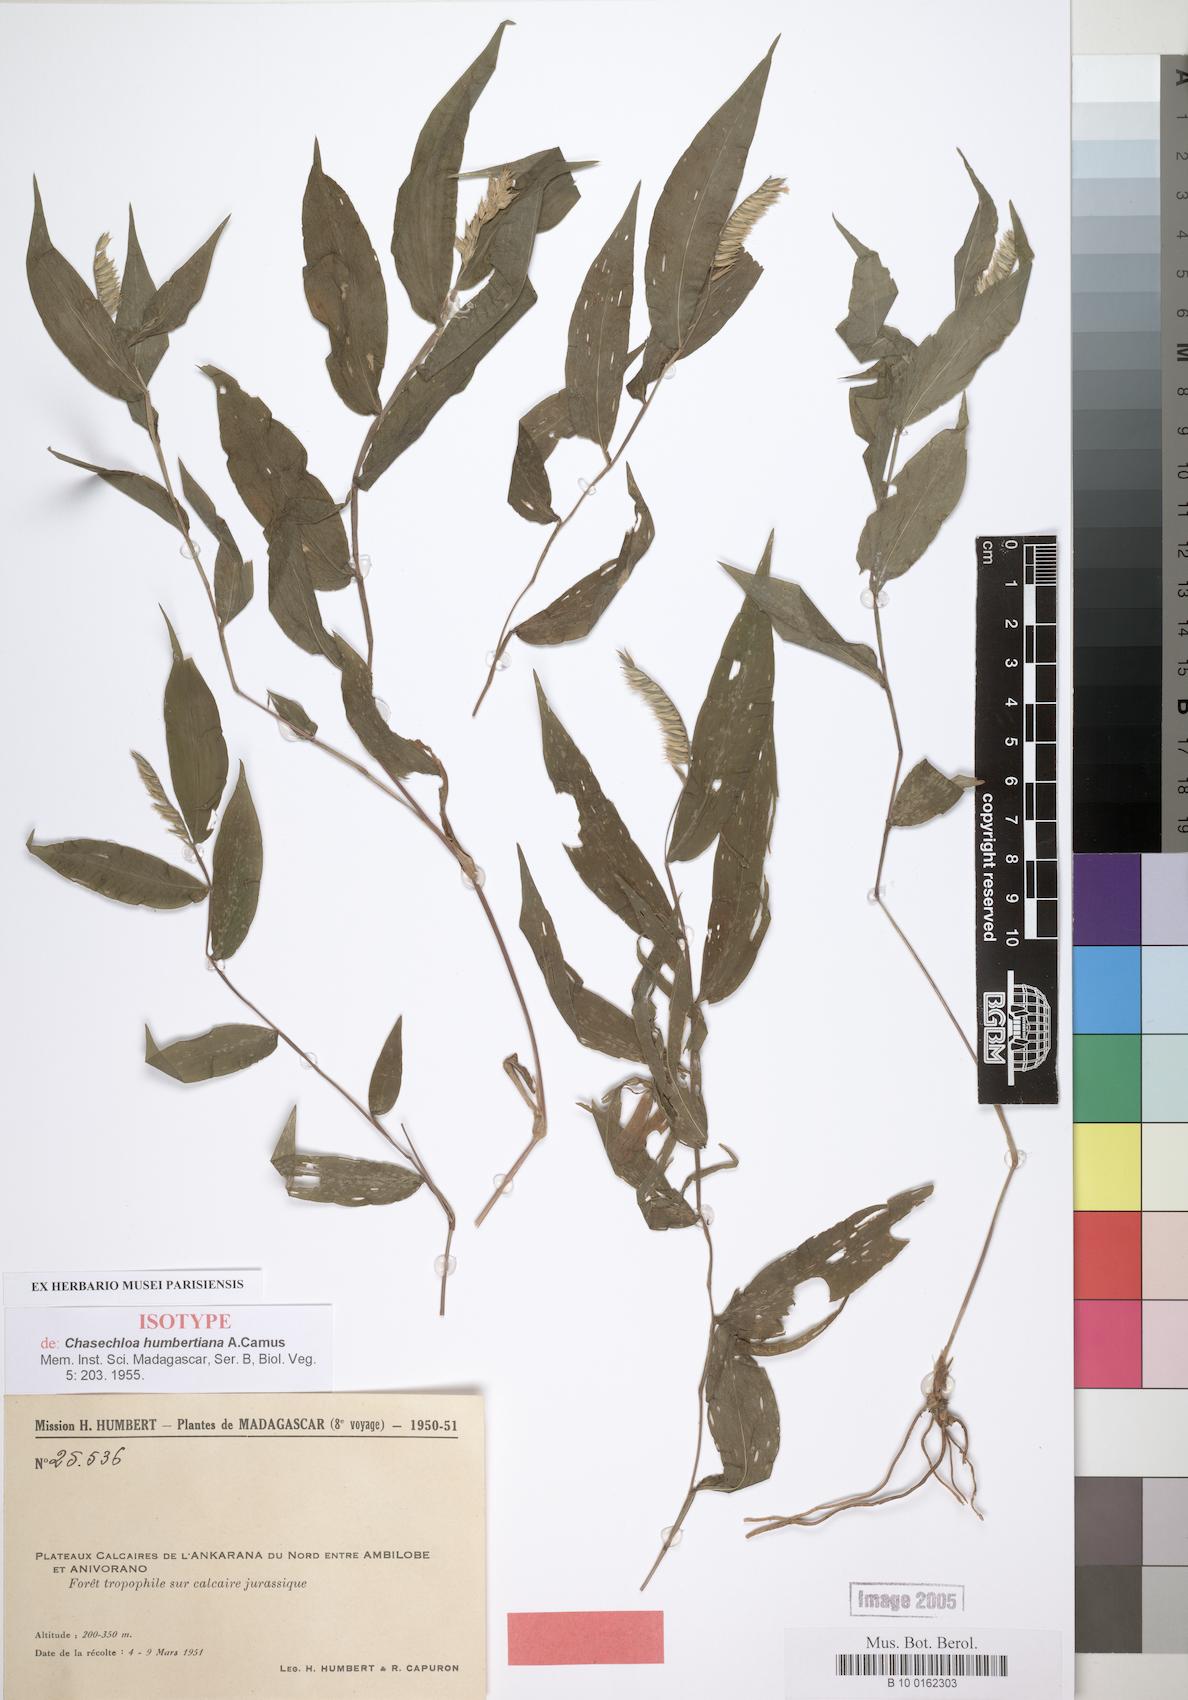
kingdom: Plantae
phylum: Tracheophyta
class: Liliopsida
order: Poales
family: Poaceae
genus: Chasechloa
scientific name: Chasechloa madagascariensis
